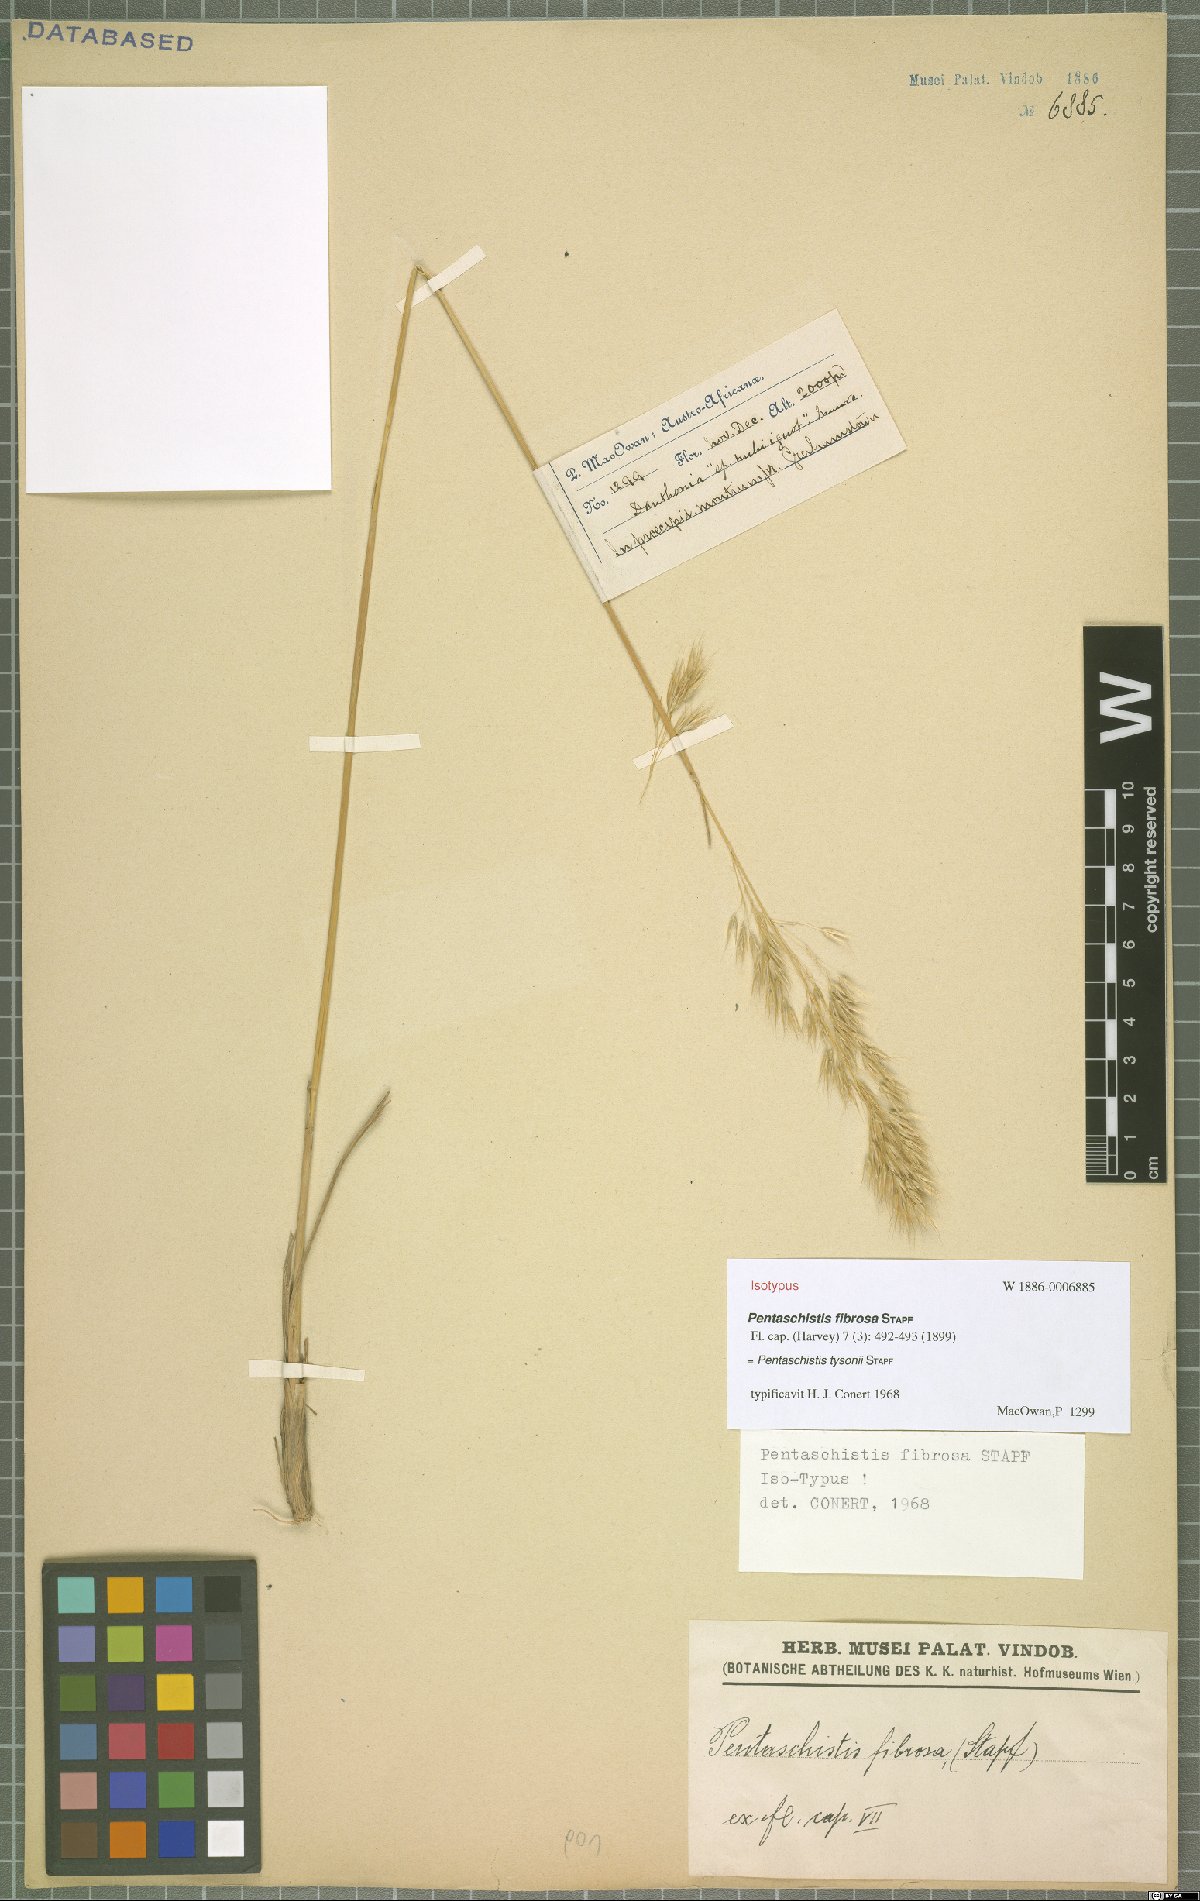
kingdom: Plantae
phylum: Tracheophyta
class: Liliopsida
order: Poales
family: Poaceae
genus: Pentameris
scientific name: Pentameris tysonii
